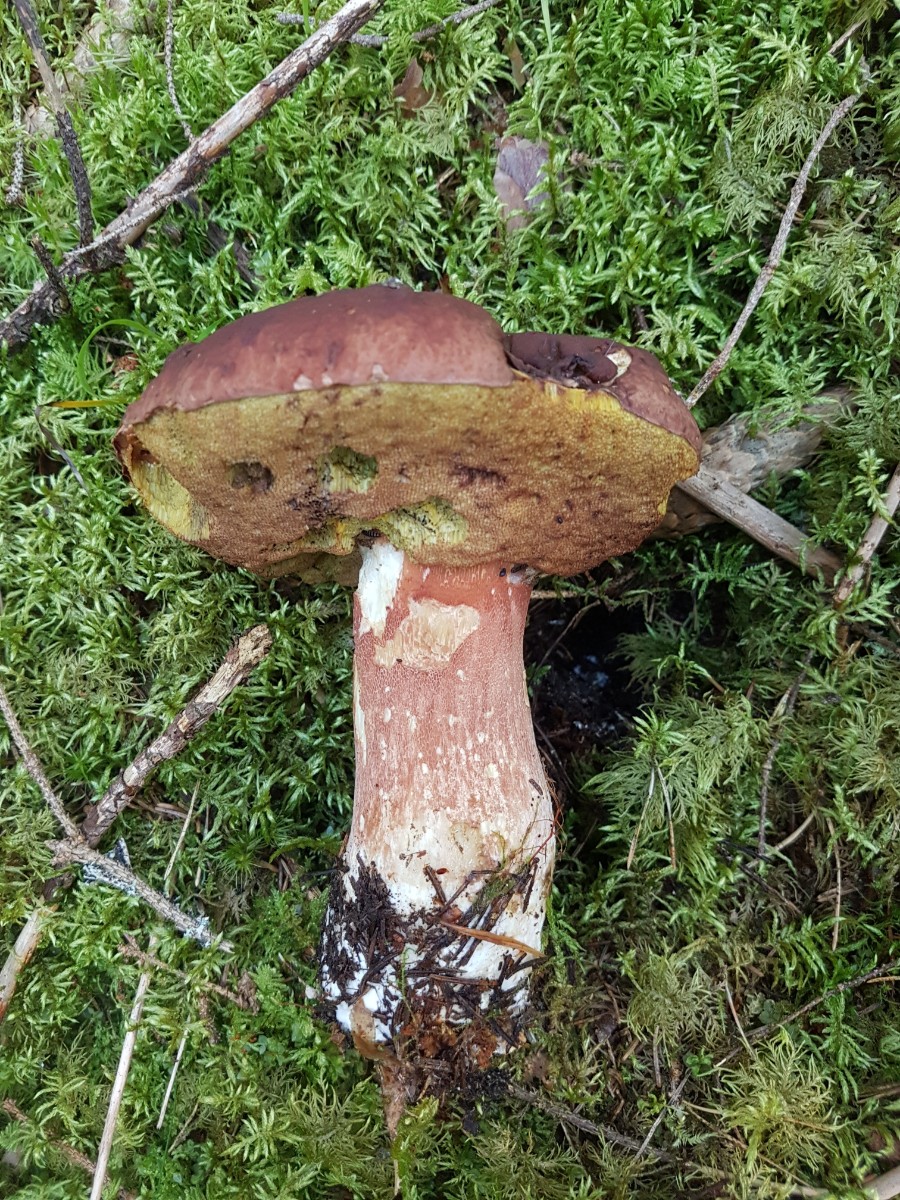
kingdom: Fungi
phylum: Basidiomycota
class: Agaricomycetes
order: Boletales
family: Boletaceae
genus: Boletus
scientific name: Boletus pinophilus
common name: rødbrun rørhat
